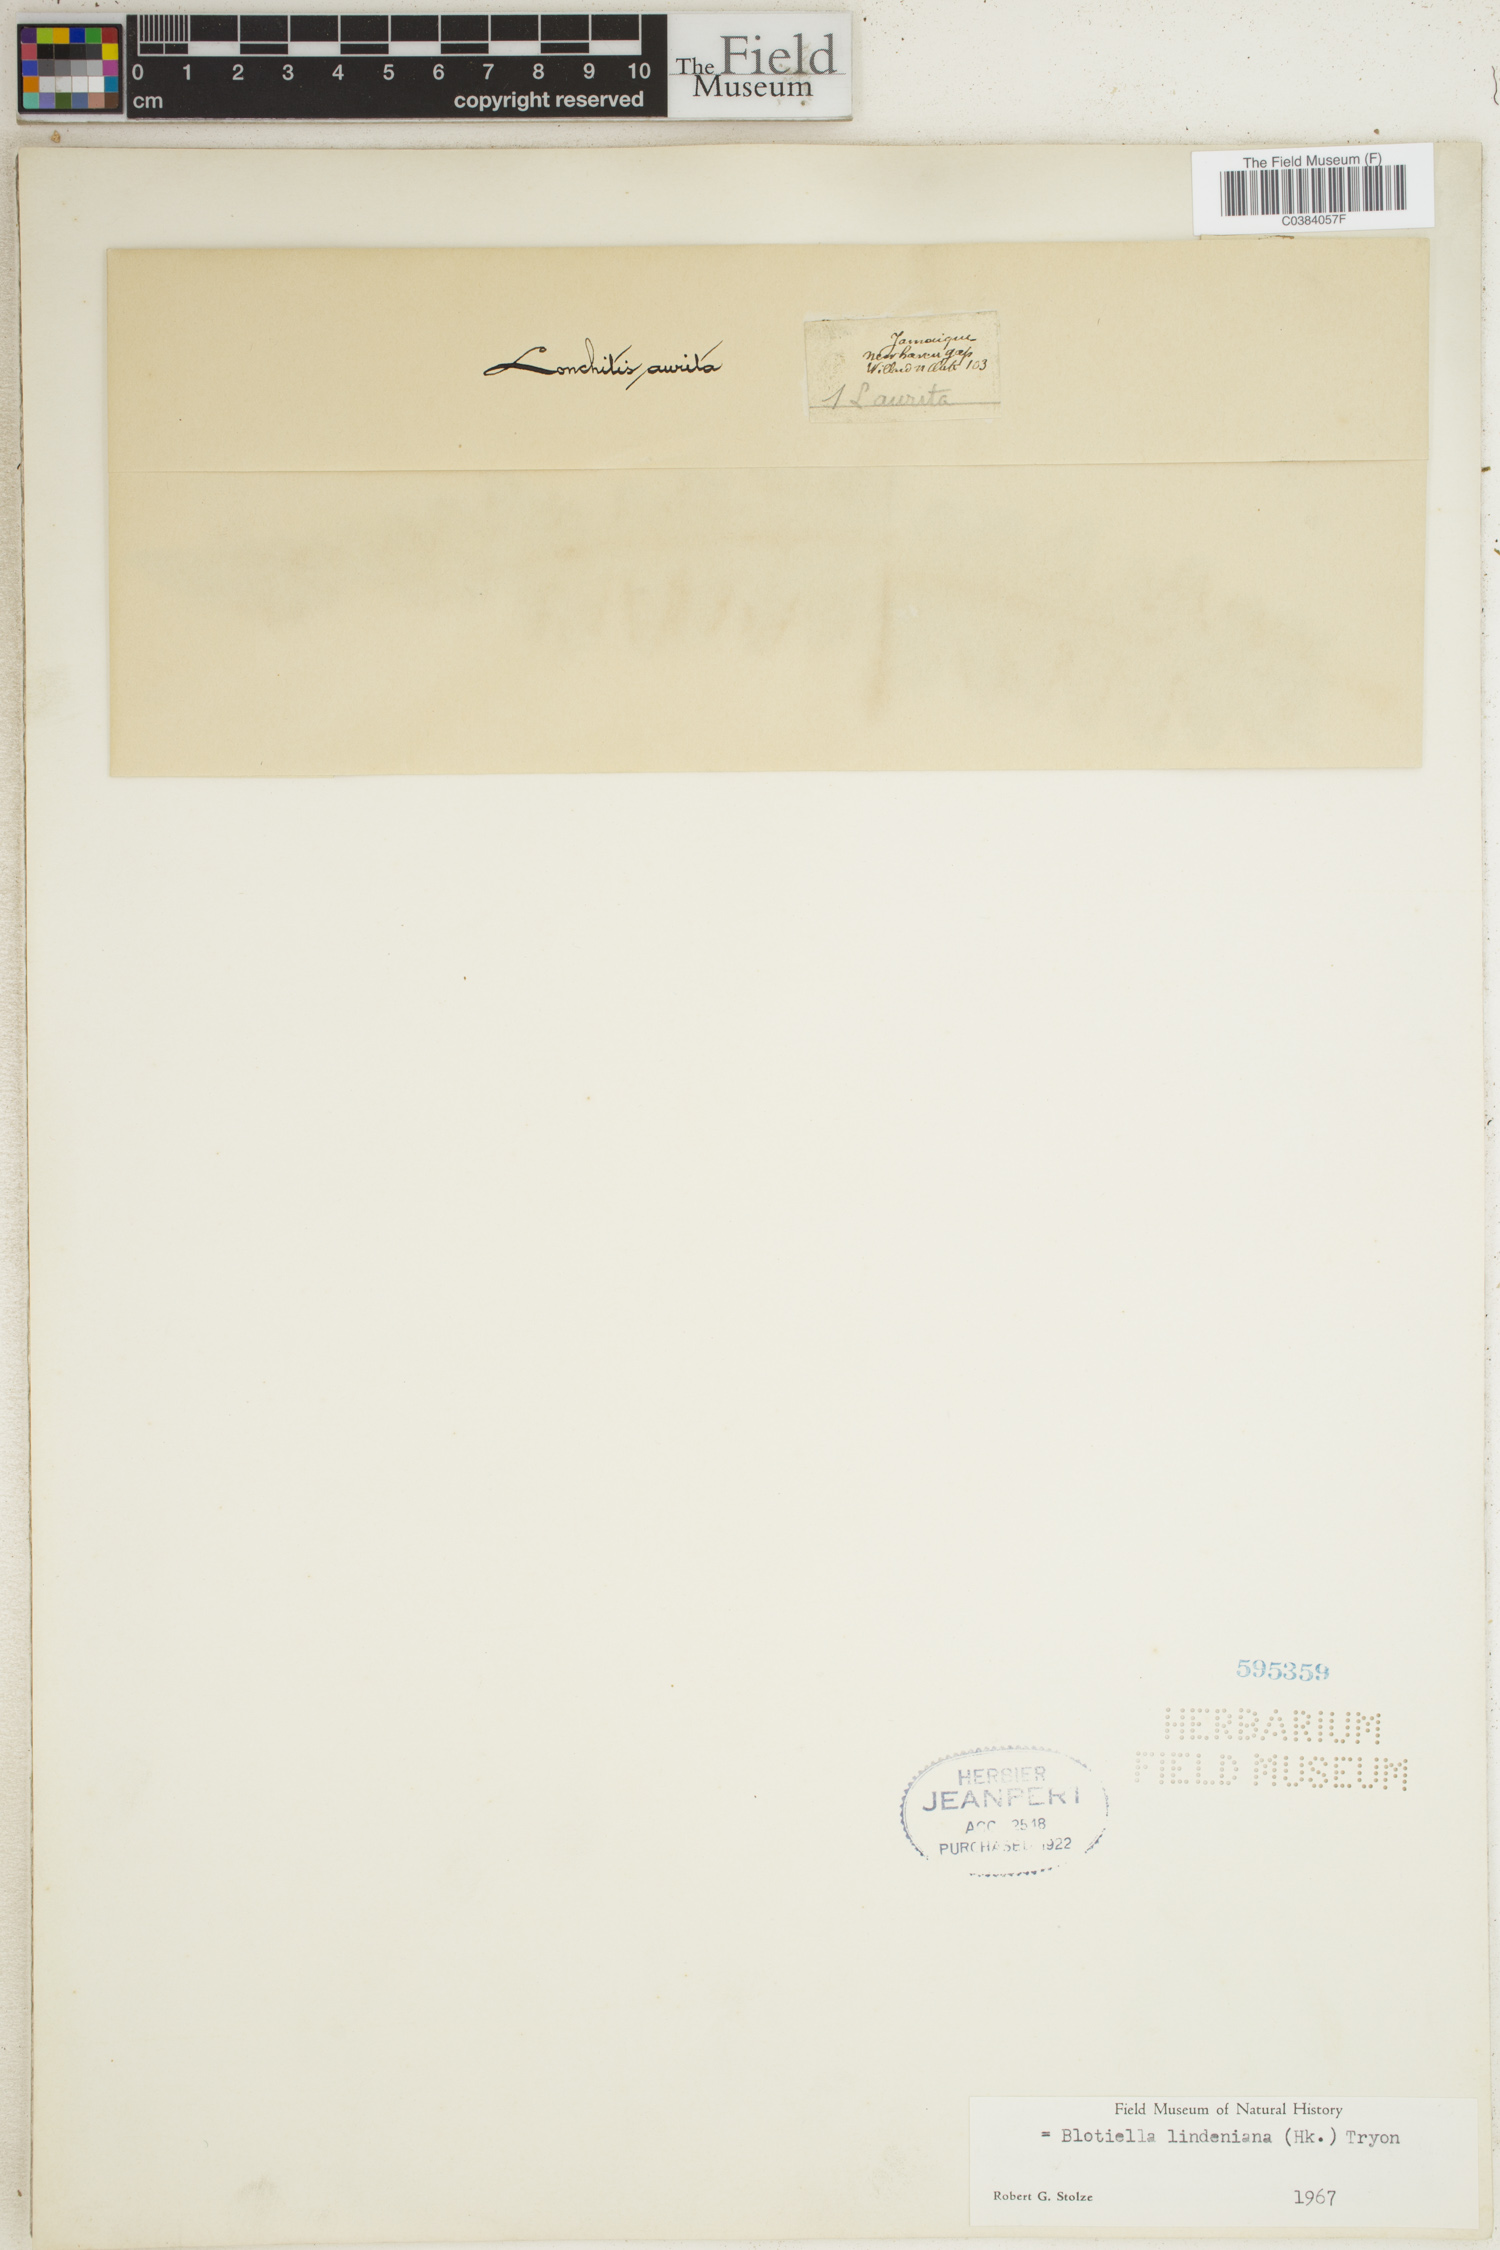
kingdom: Plantae
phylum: Tracheophyta
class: Polypodiopsida
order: Polypodiales
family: Dennstaedtiaceae
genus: Blotiella
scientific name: Blotiella aurita
